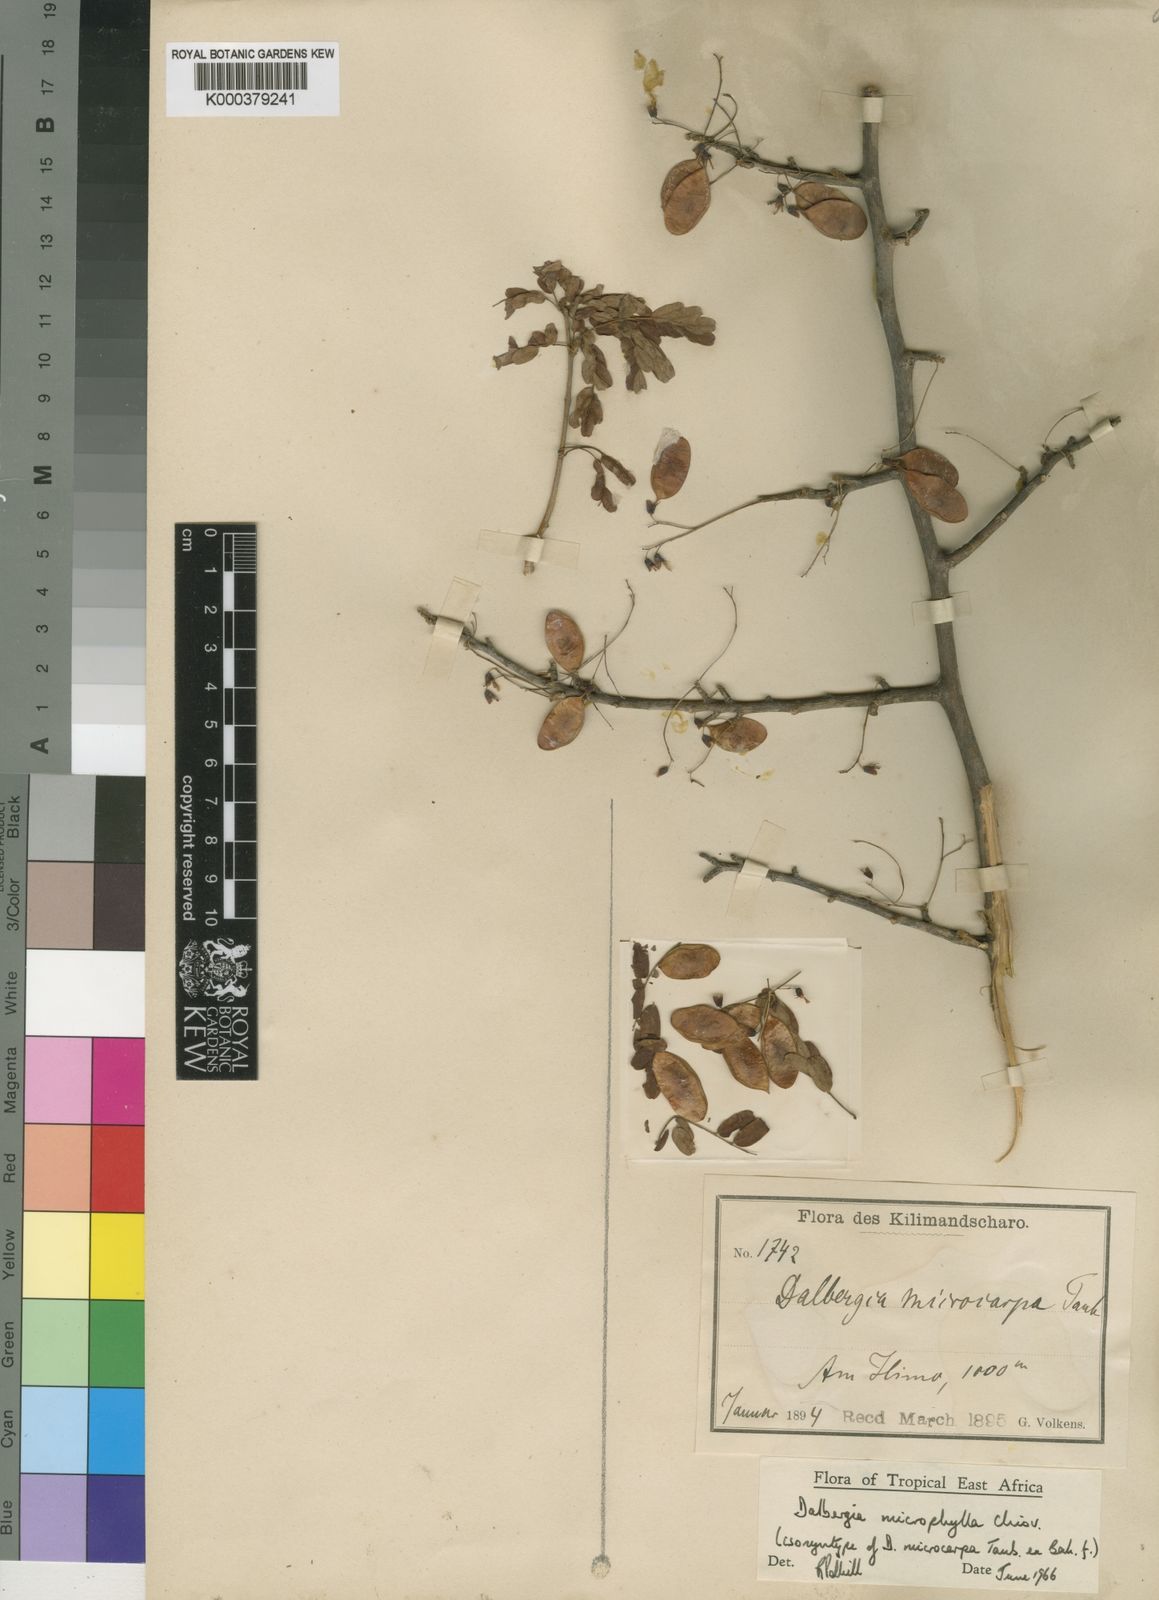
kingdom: Plantae
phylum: Tracheophyta
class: Magnoliopsida
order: Fabales
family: Fabaceae
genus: Dalbergia
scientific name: Dalbergia microphylla
